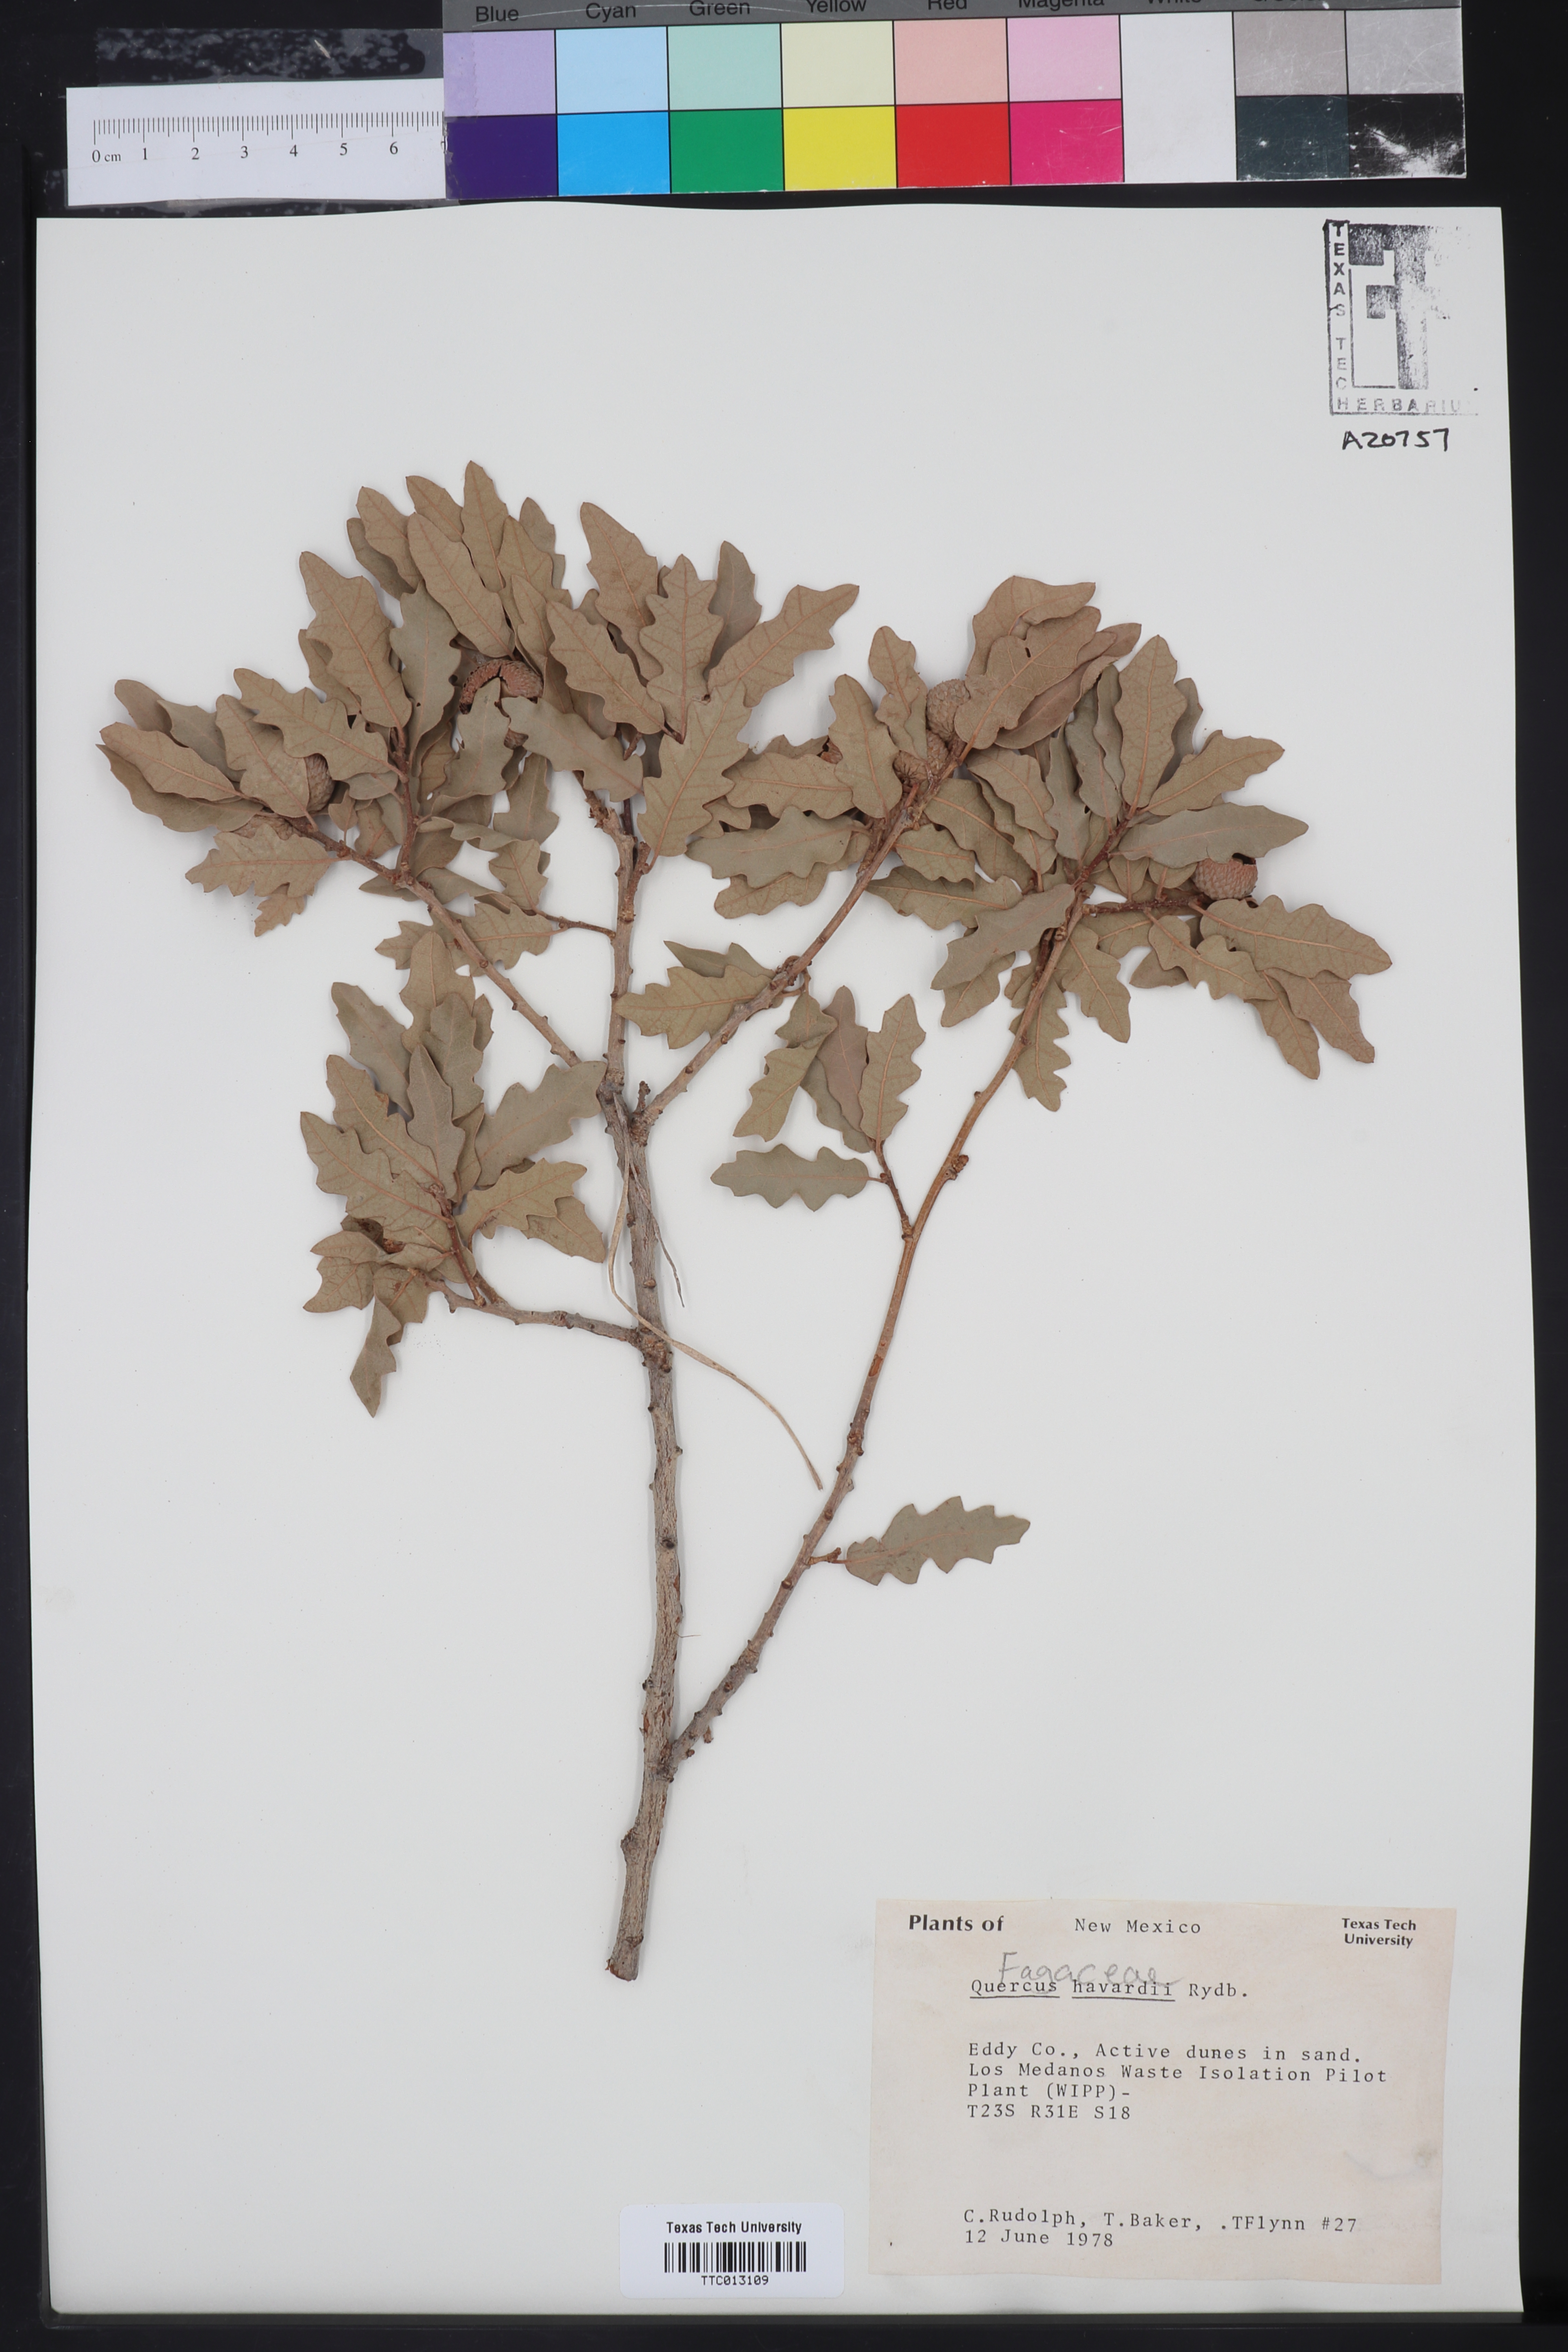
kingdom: Plantae
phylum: Tracheophyta
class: Magnoliopsida
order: Fagales
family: Fagaceae
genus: Quercus
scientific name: Quercus havardii
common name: Shinnery oak
